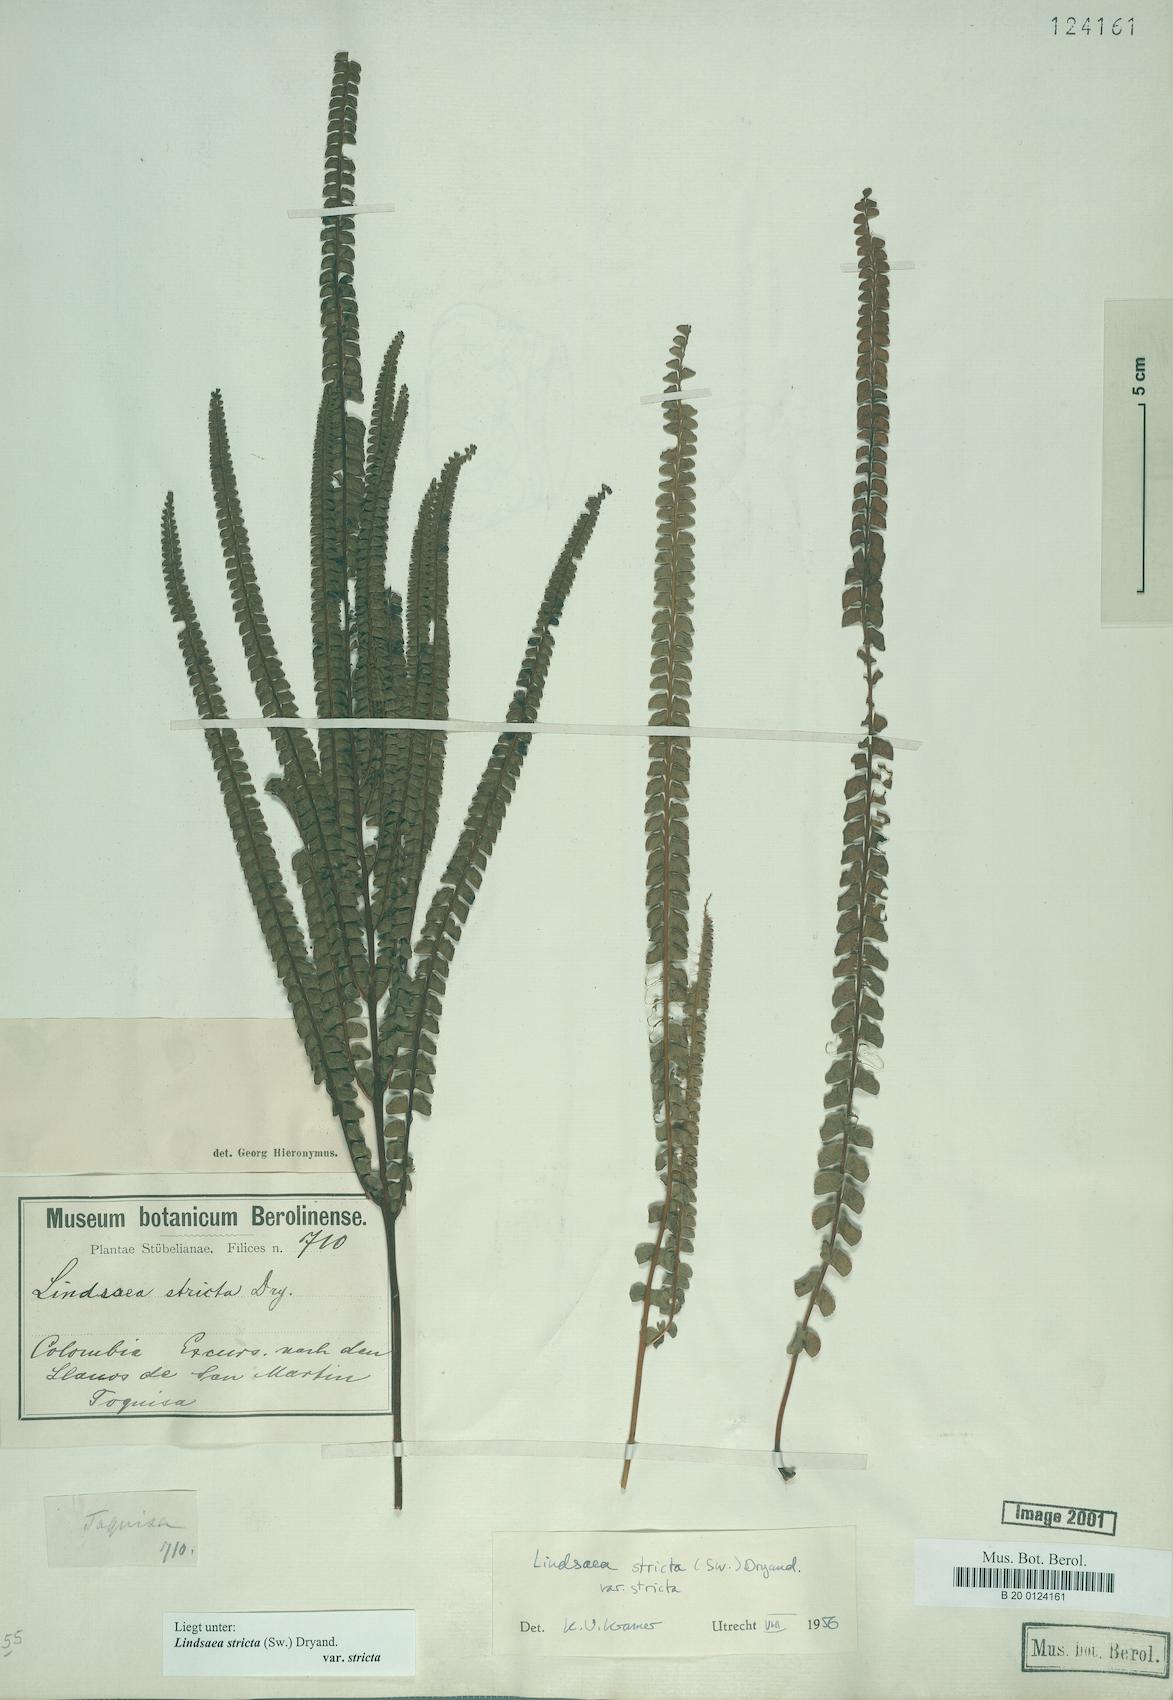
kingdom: Plantae
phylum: Tracheophyta
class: Polypodiopsida
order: Polypodiales
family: Lindsaeaceae
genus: Lindsaea
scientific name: Lindsaea stricta
